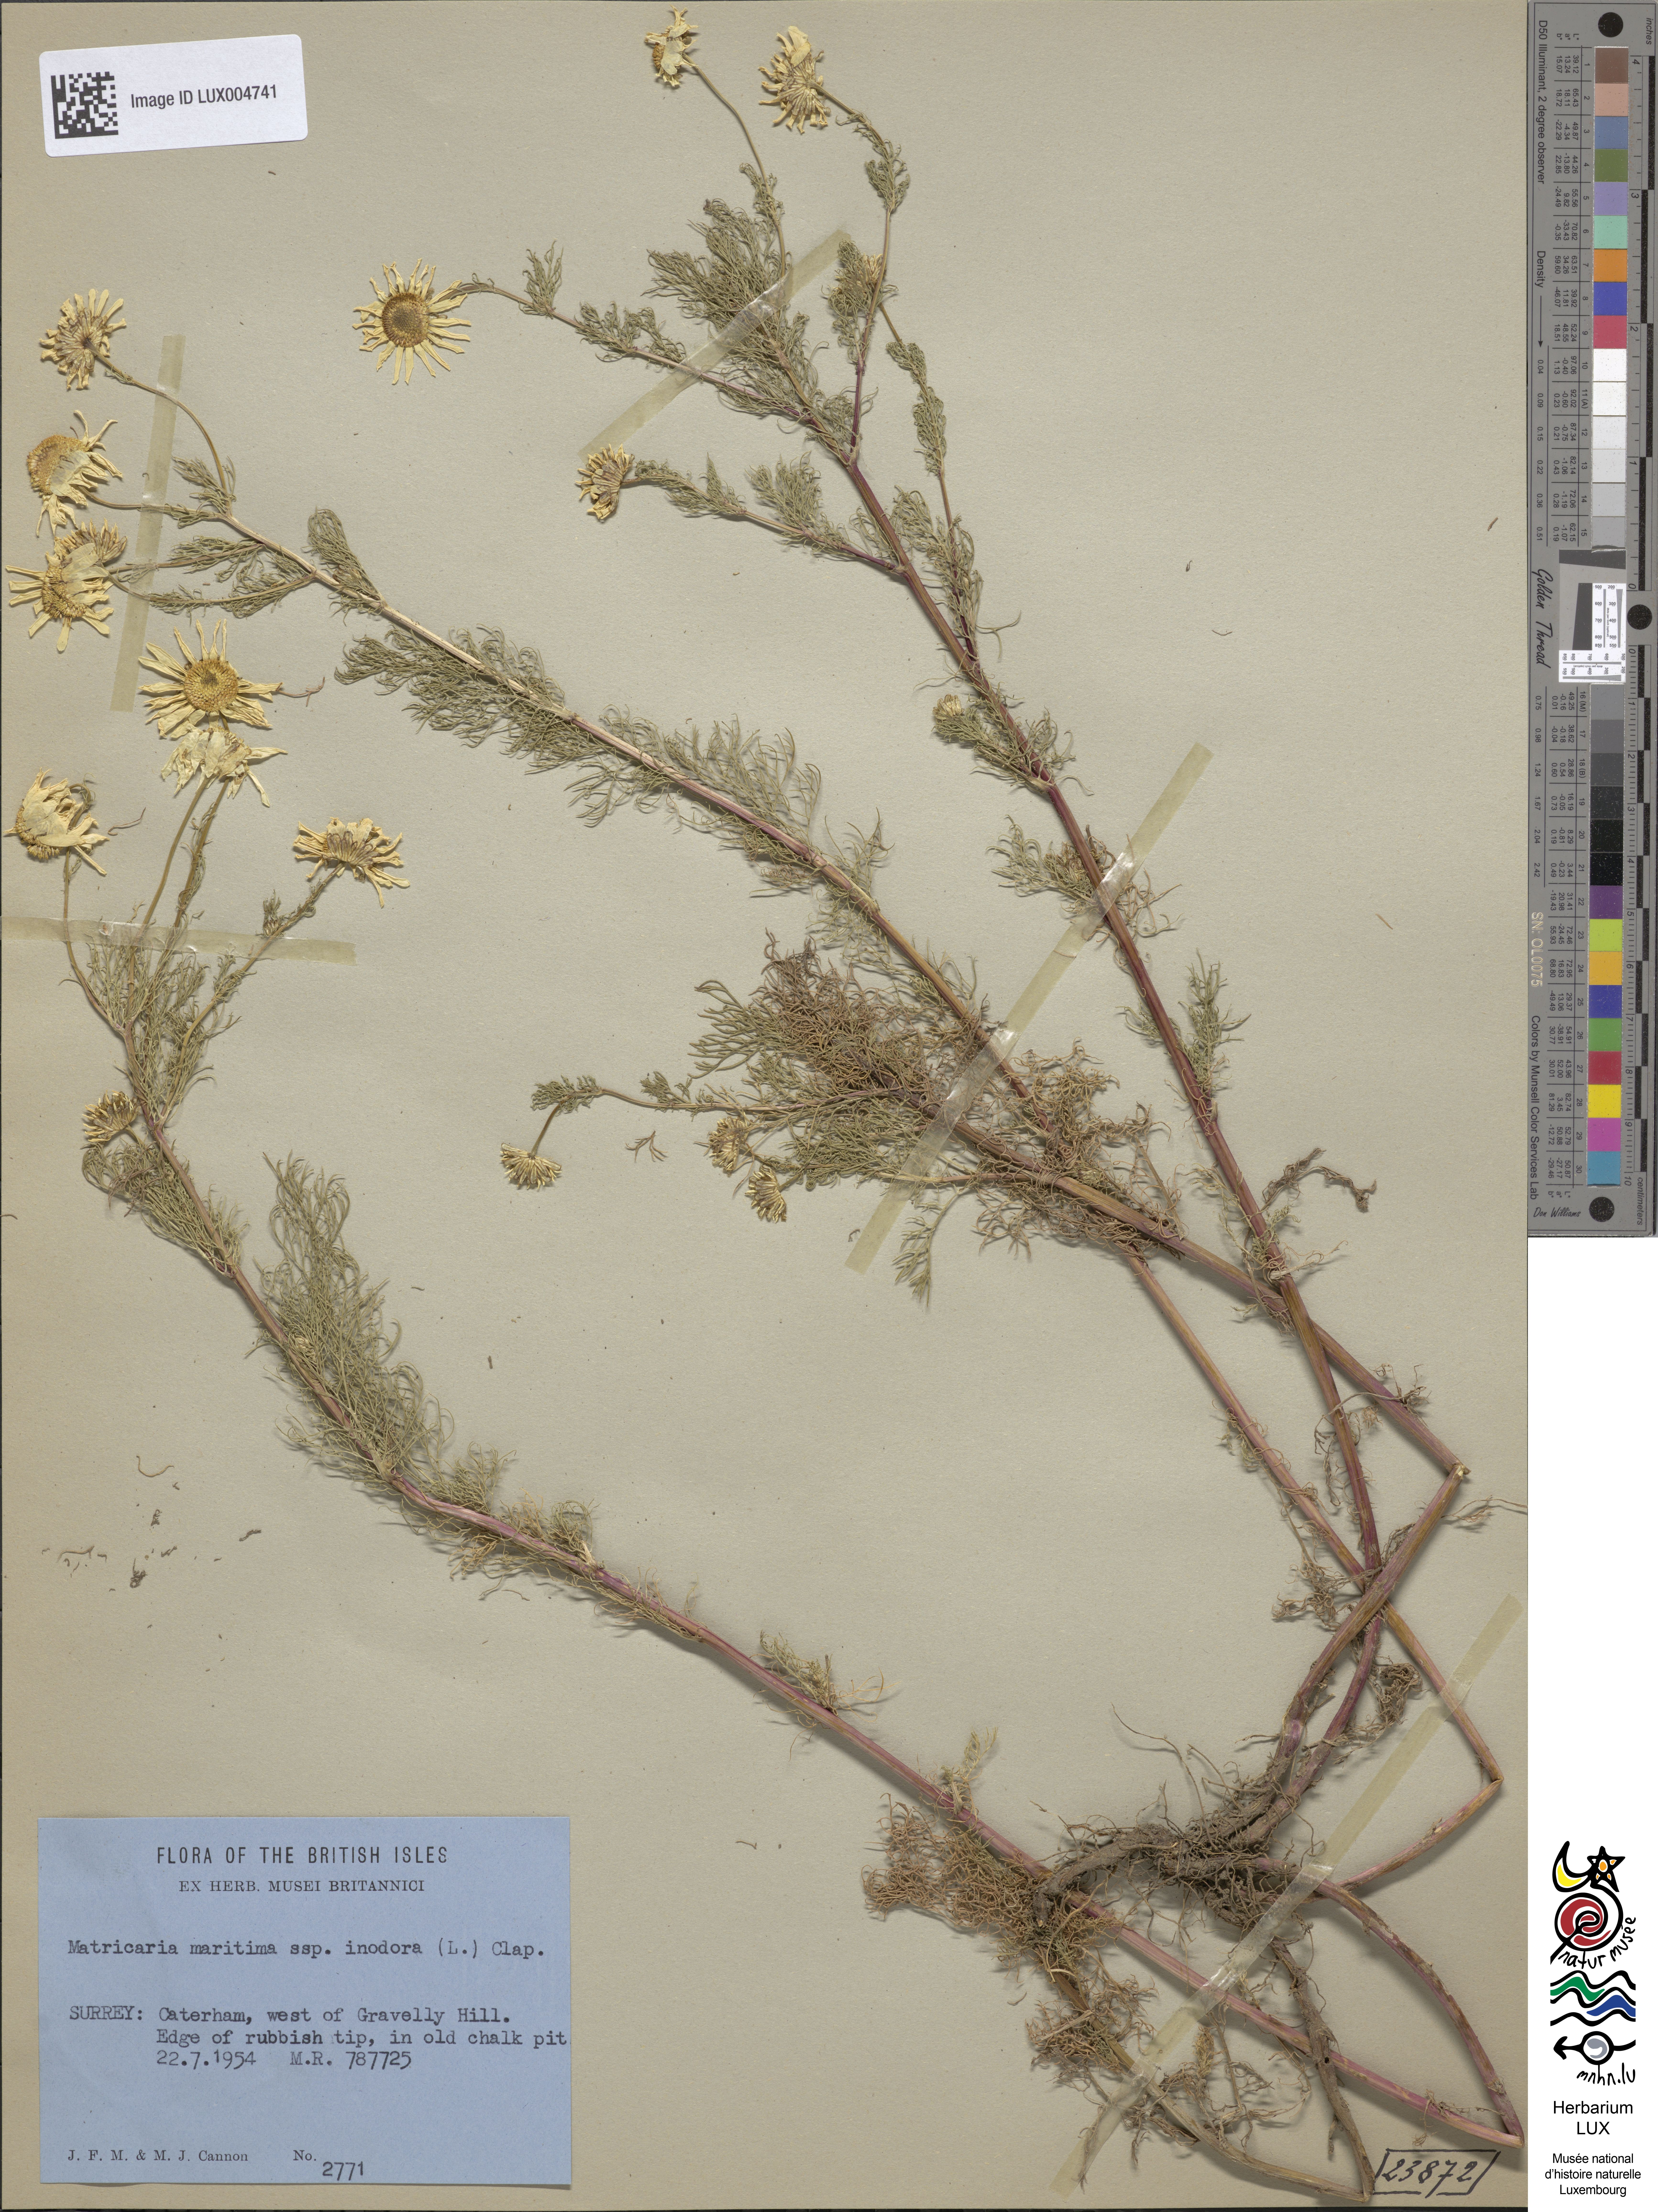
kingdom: Plantae
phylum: Tracheophyta
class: Magnoliopsida
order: Asterales
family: Asteraceae
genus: Tripleurospermum
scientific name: Tripleurospermum inodorum
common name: Scentless mayweed
